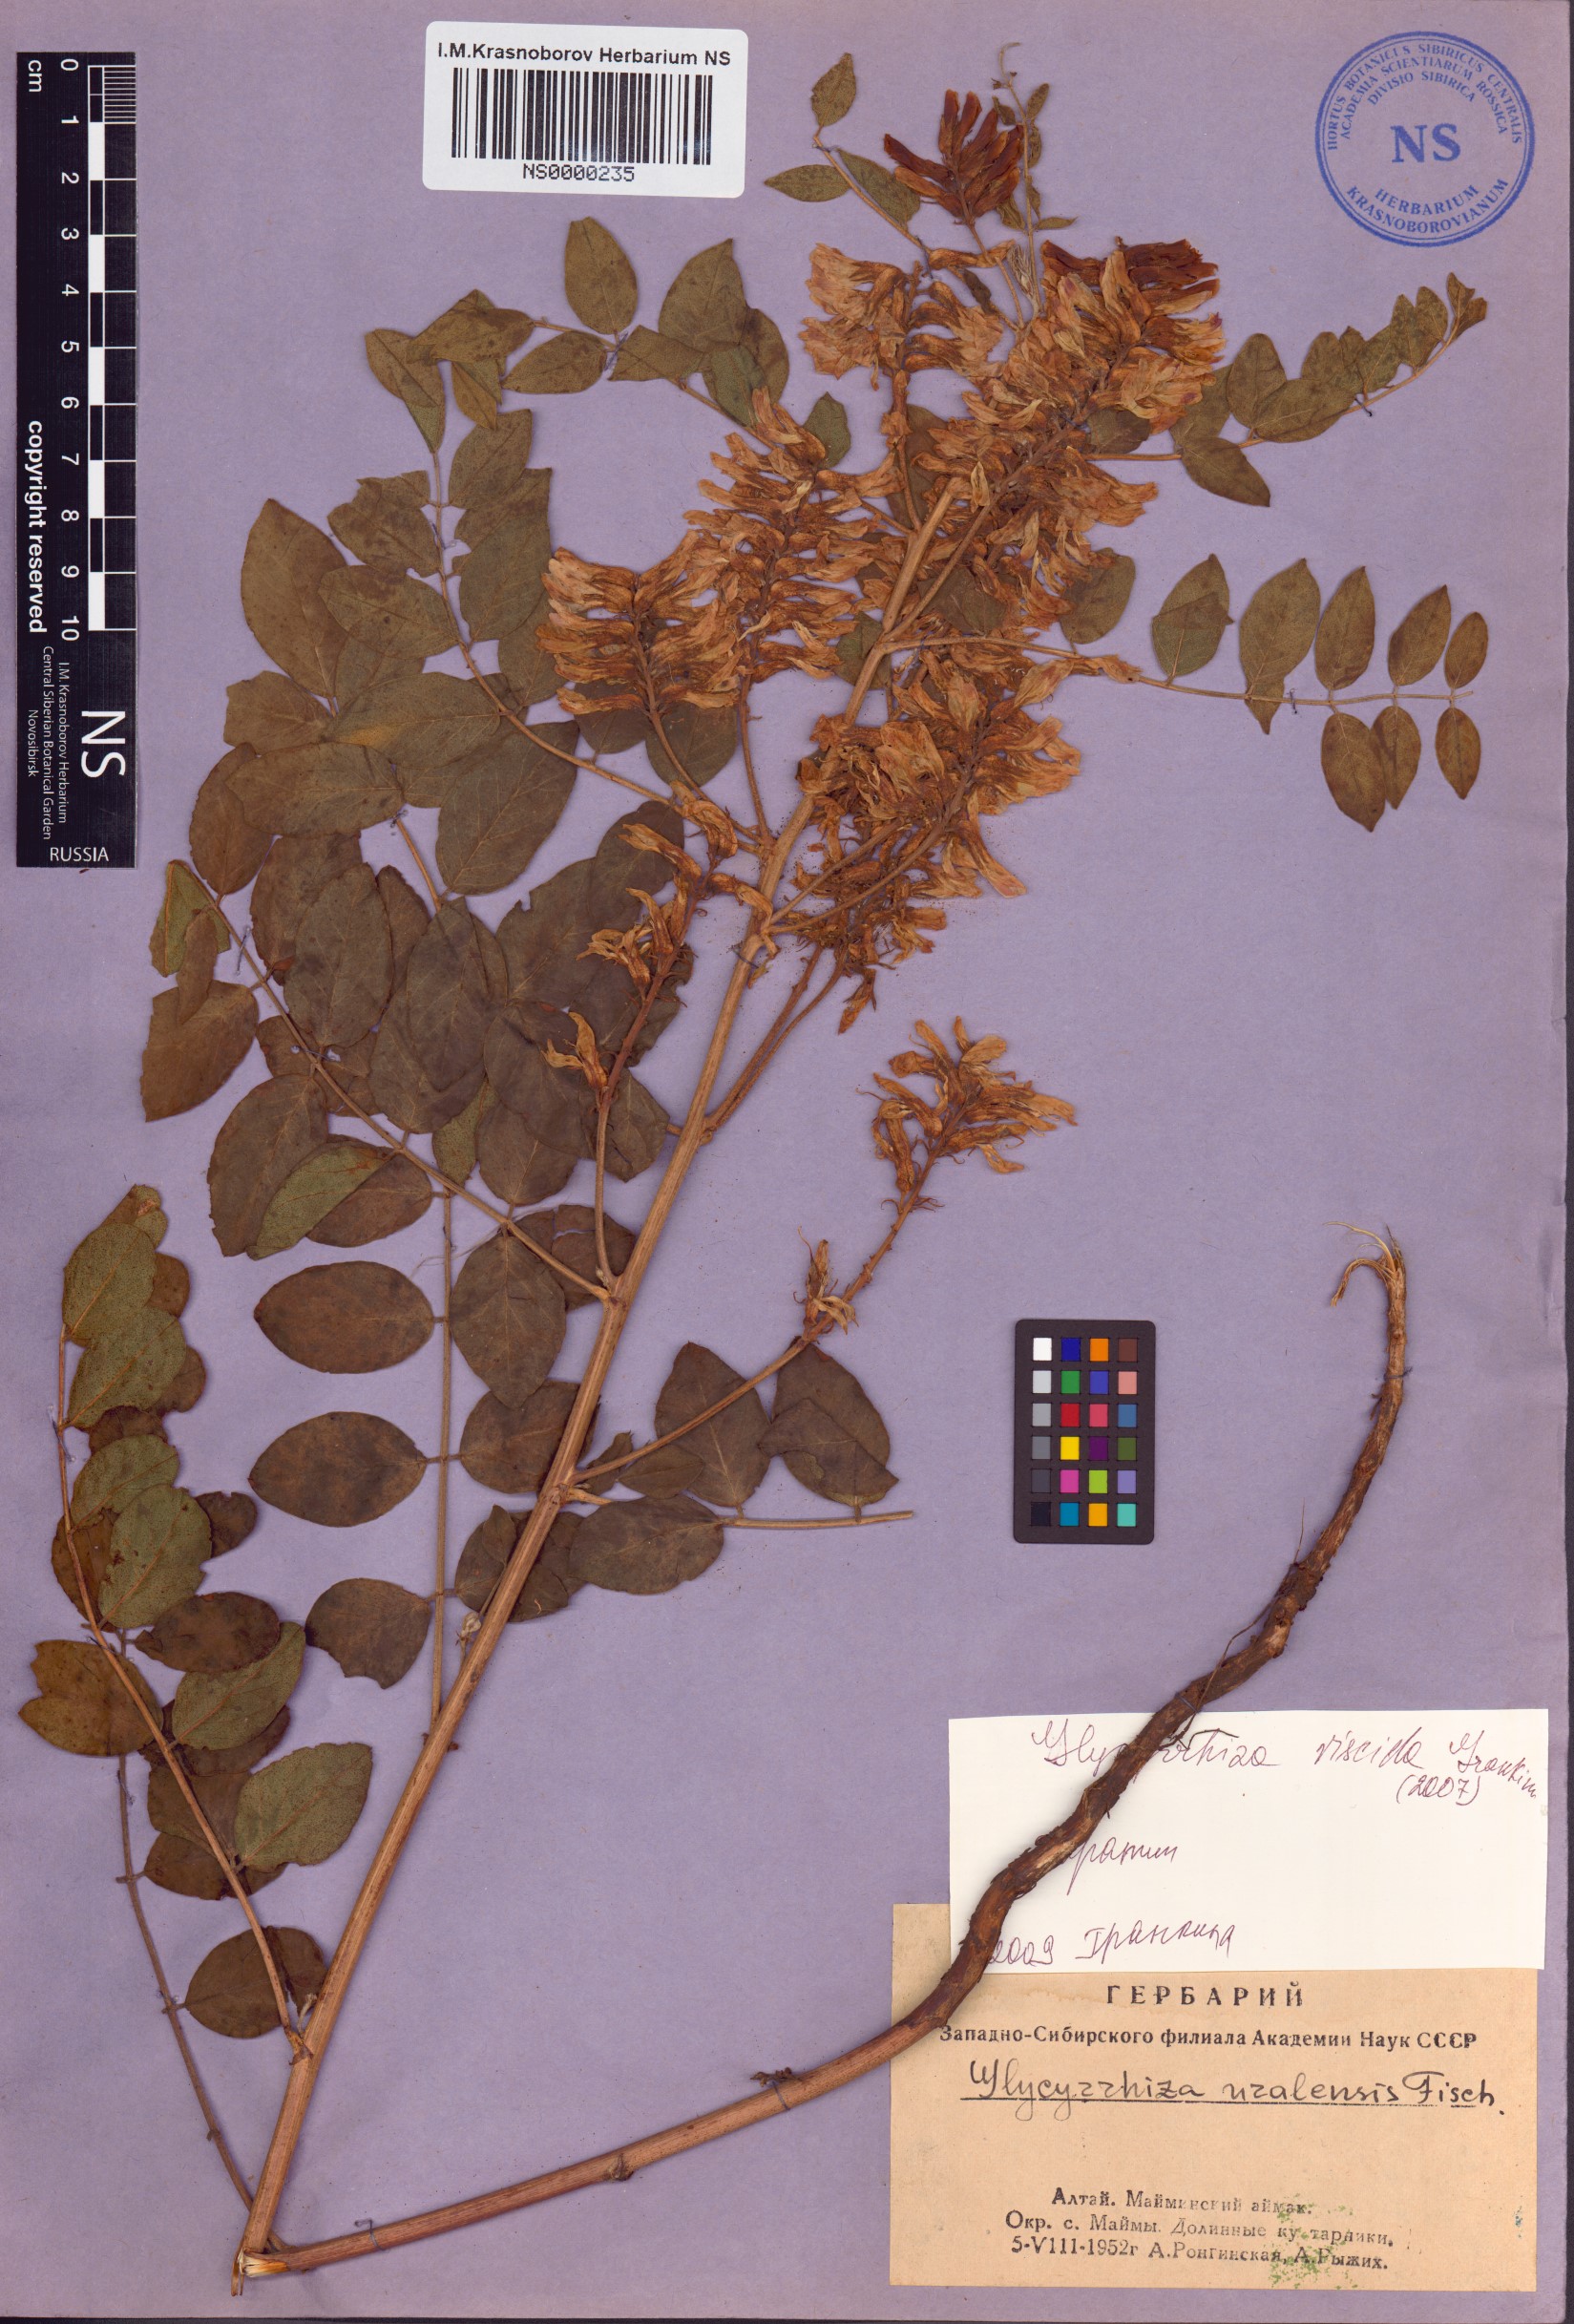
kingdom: Plantae
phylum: Tracheophyta
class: Magnoliopsida
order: Fabales
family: Fabaceae
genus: Glycyrrhiza
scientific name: Glycyrrhiza uralensis
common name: Chinese licorice
